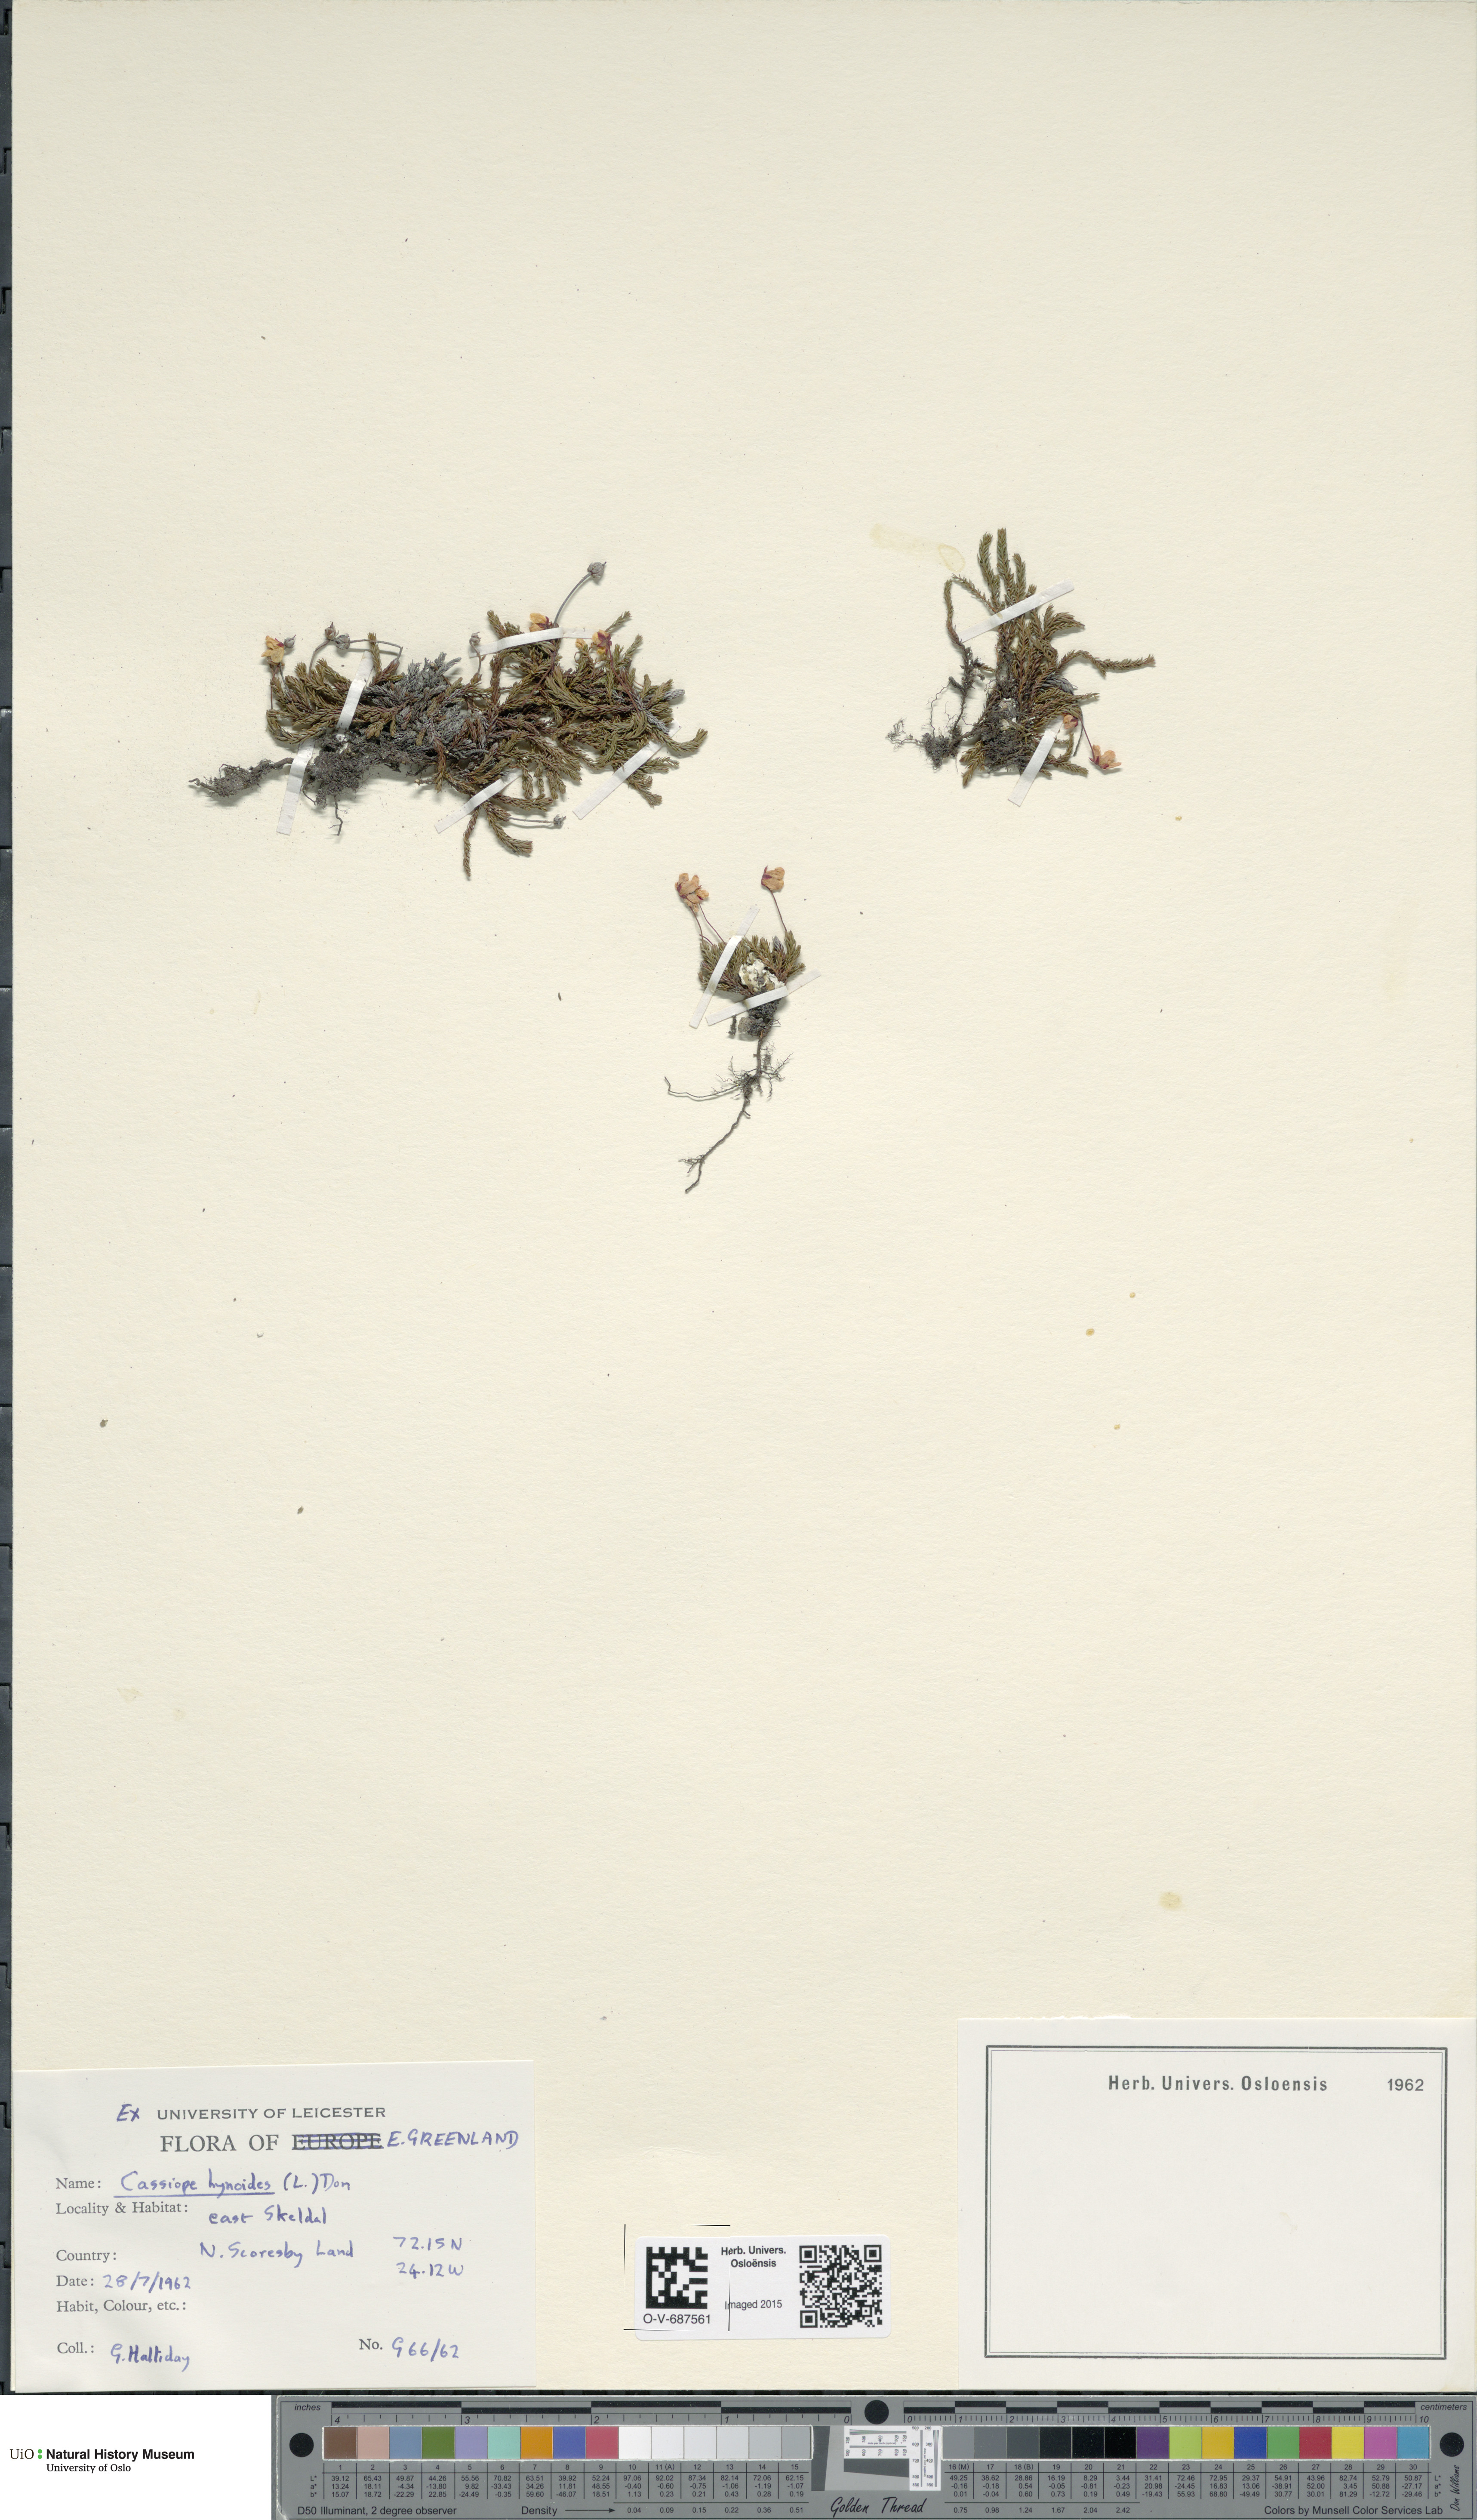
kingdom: Plantae
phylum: Tracheophyta
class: Magnoliopsida
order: Ericales
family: Ericaceae
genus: Harrimanella
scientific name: Harrimanella hypnoides
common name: Moss bell heather
